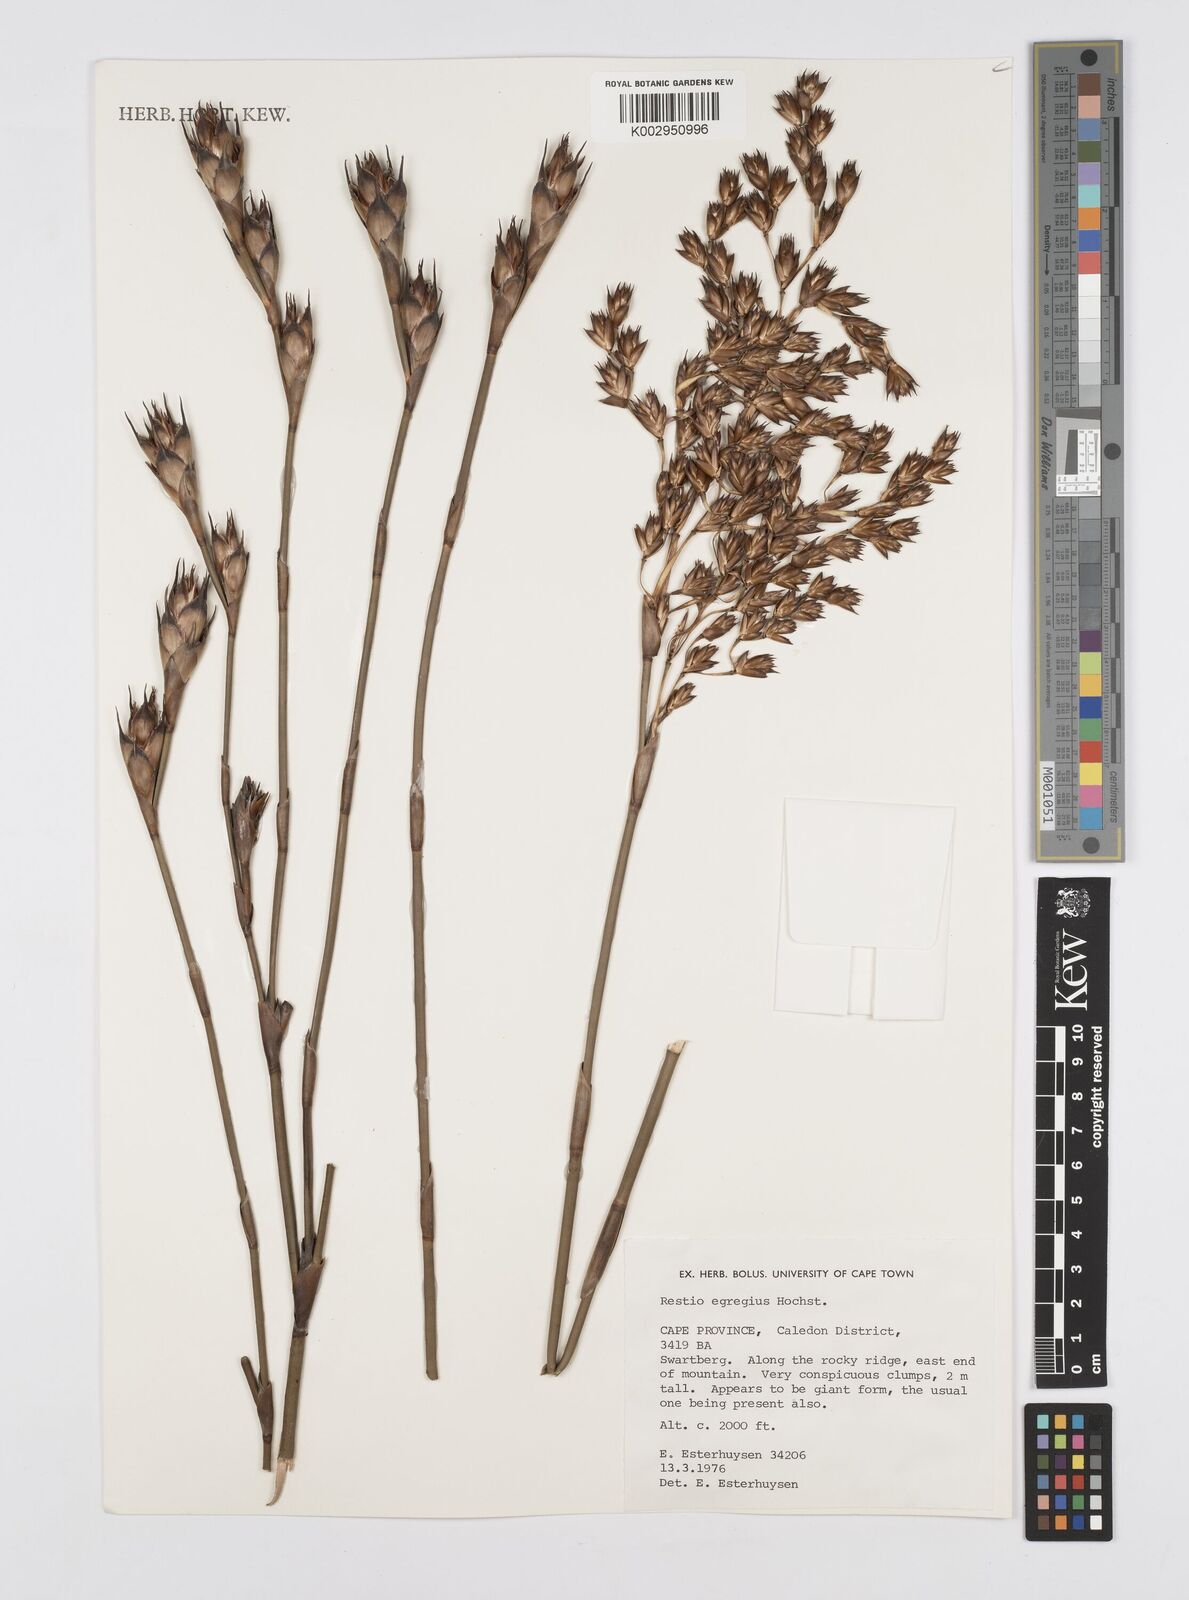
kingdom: Plantae
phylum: Tracheophyta
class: Liliopsida
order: Poales
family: Restionaceae
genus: Restio
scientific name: Restio egregius
